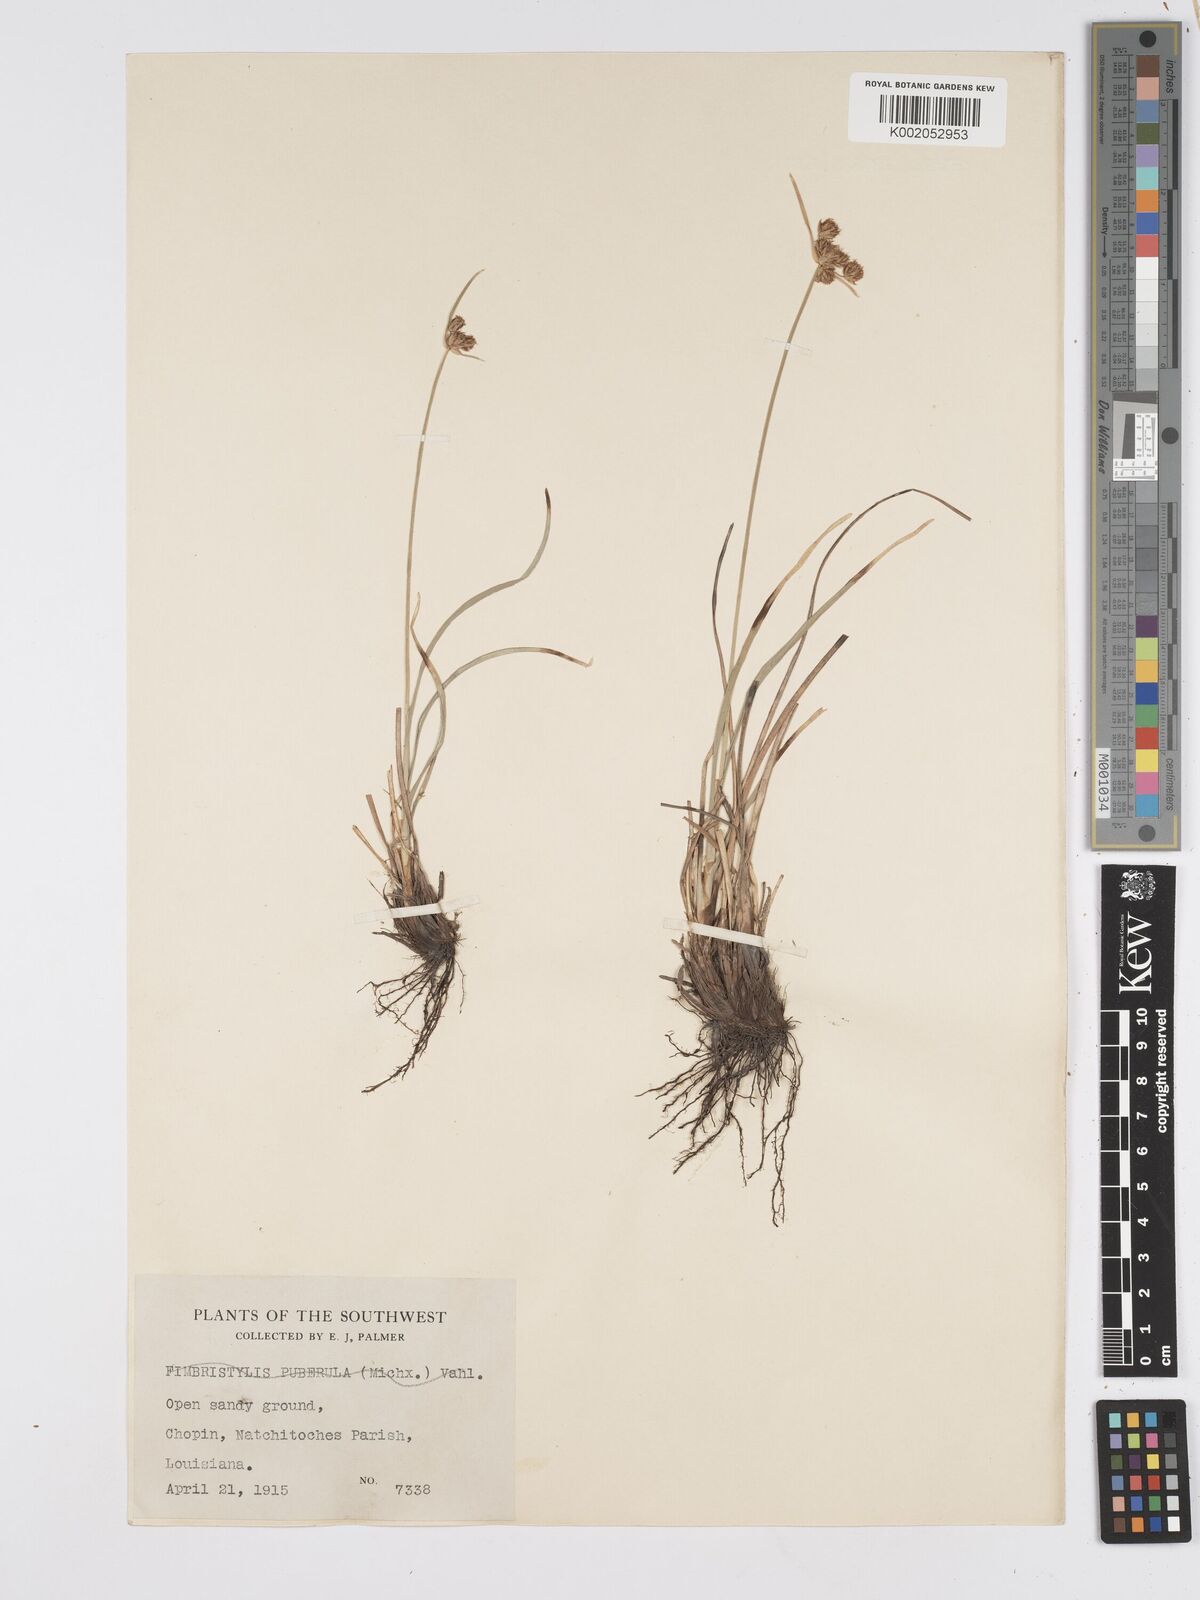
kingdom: Plantae
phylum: Tracheophyta
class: Liliopsida
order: Poales
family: Cyperaceae
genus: Scirpus
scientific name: Scirpus
